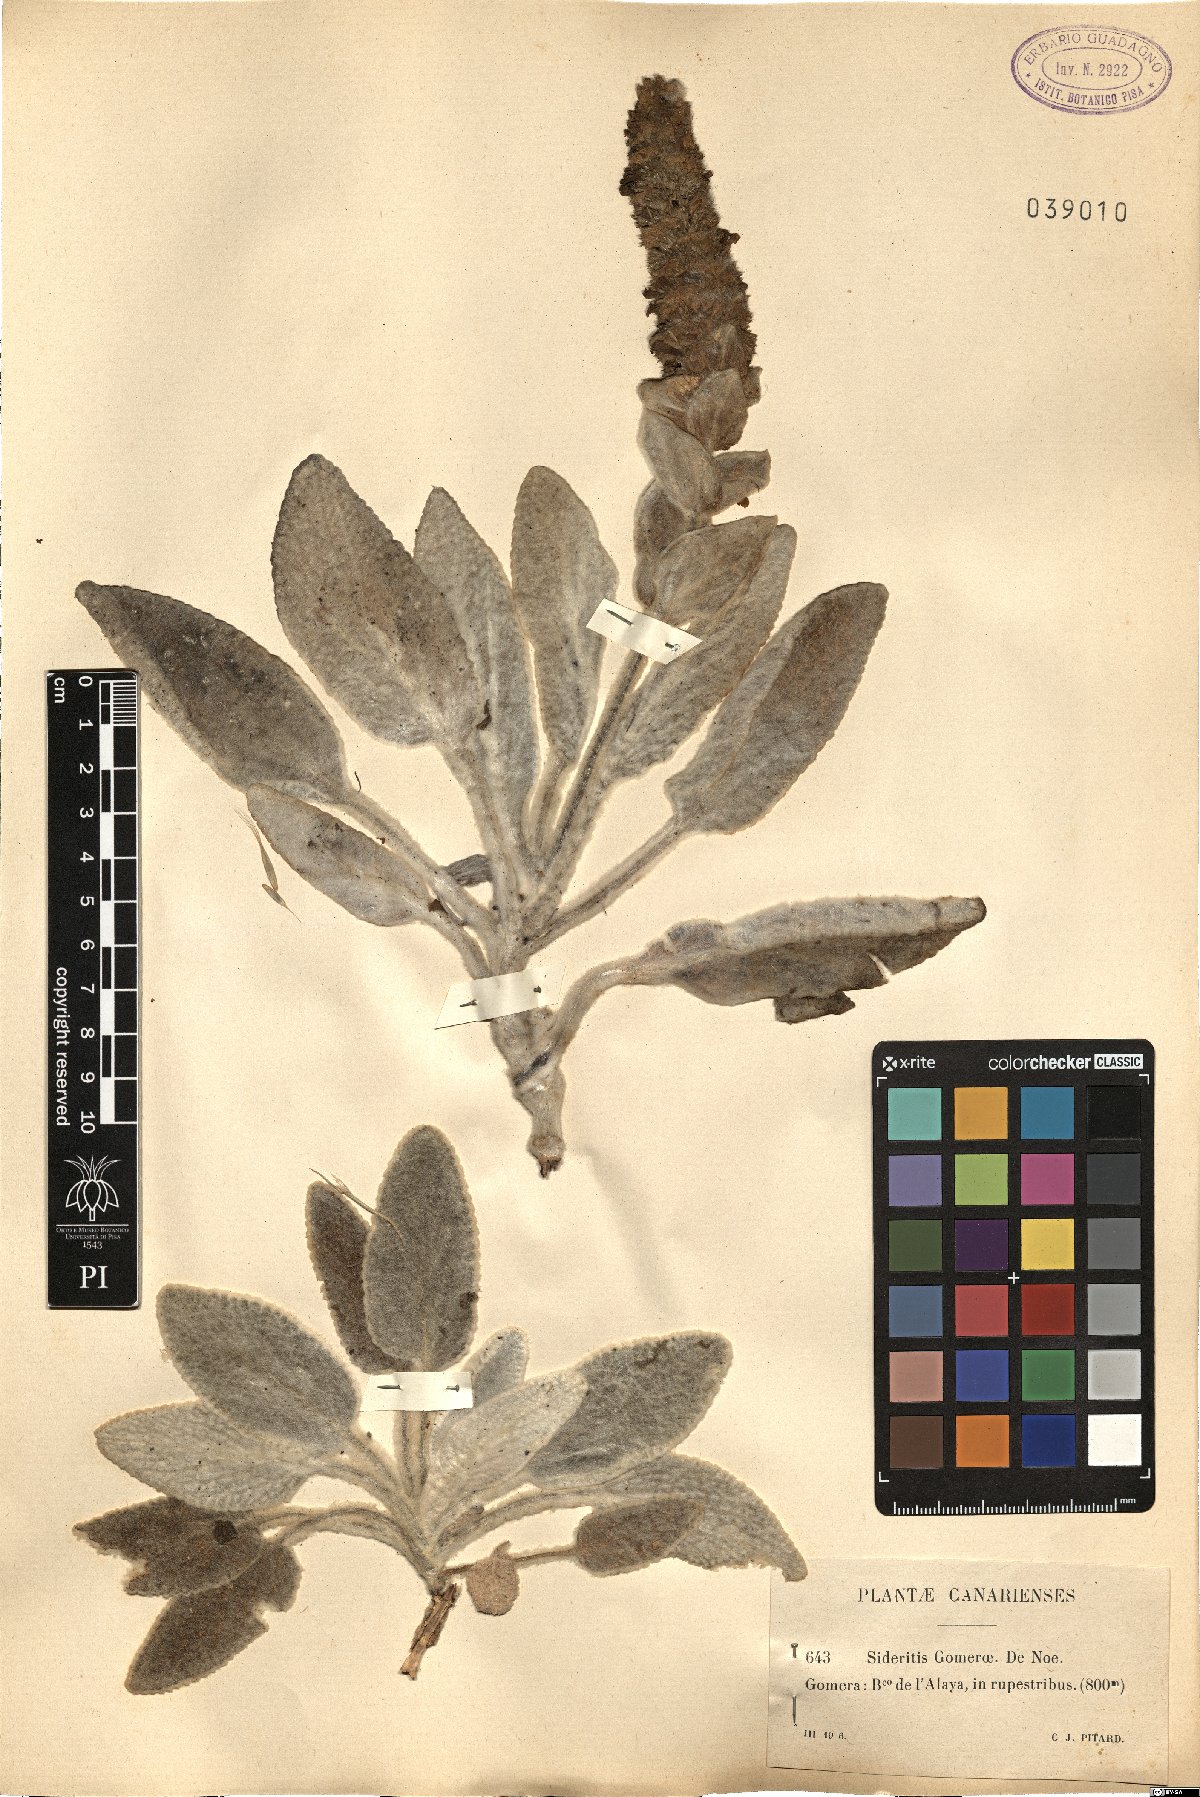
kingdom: Plantae
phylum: Tracheophyta
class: Magnoliopsida
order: Lamiales
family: Lamiaceae
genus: Sideritis
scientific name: Sideritis gomeraea
